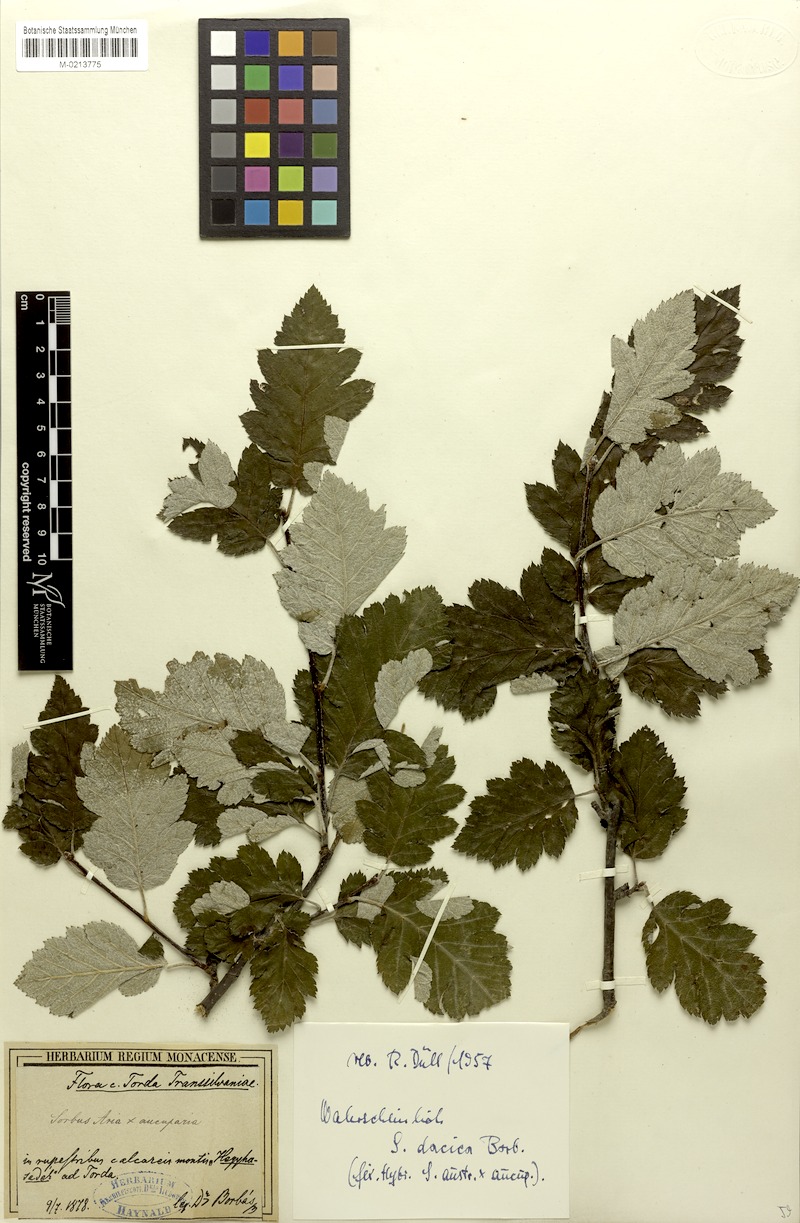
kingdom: Plantae
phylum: Tracheophyta
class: Magnoliopsida
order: Rosales
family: Rosaceae
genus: Hedlundia
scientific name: Hedlundia semipinnata
